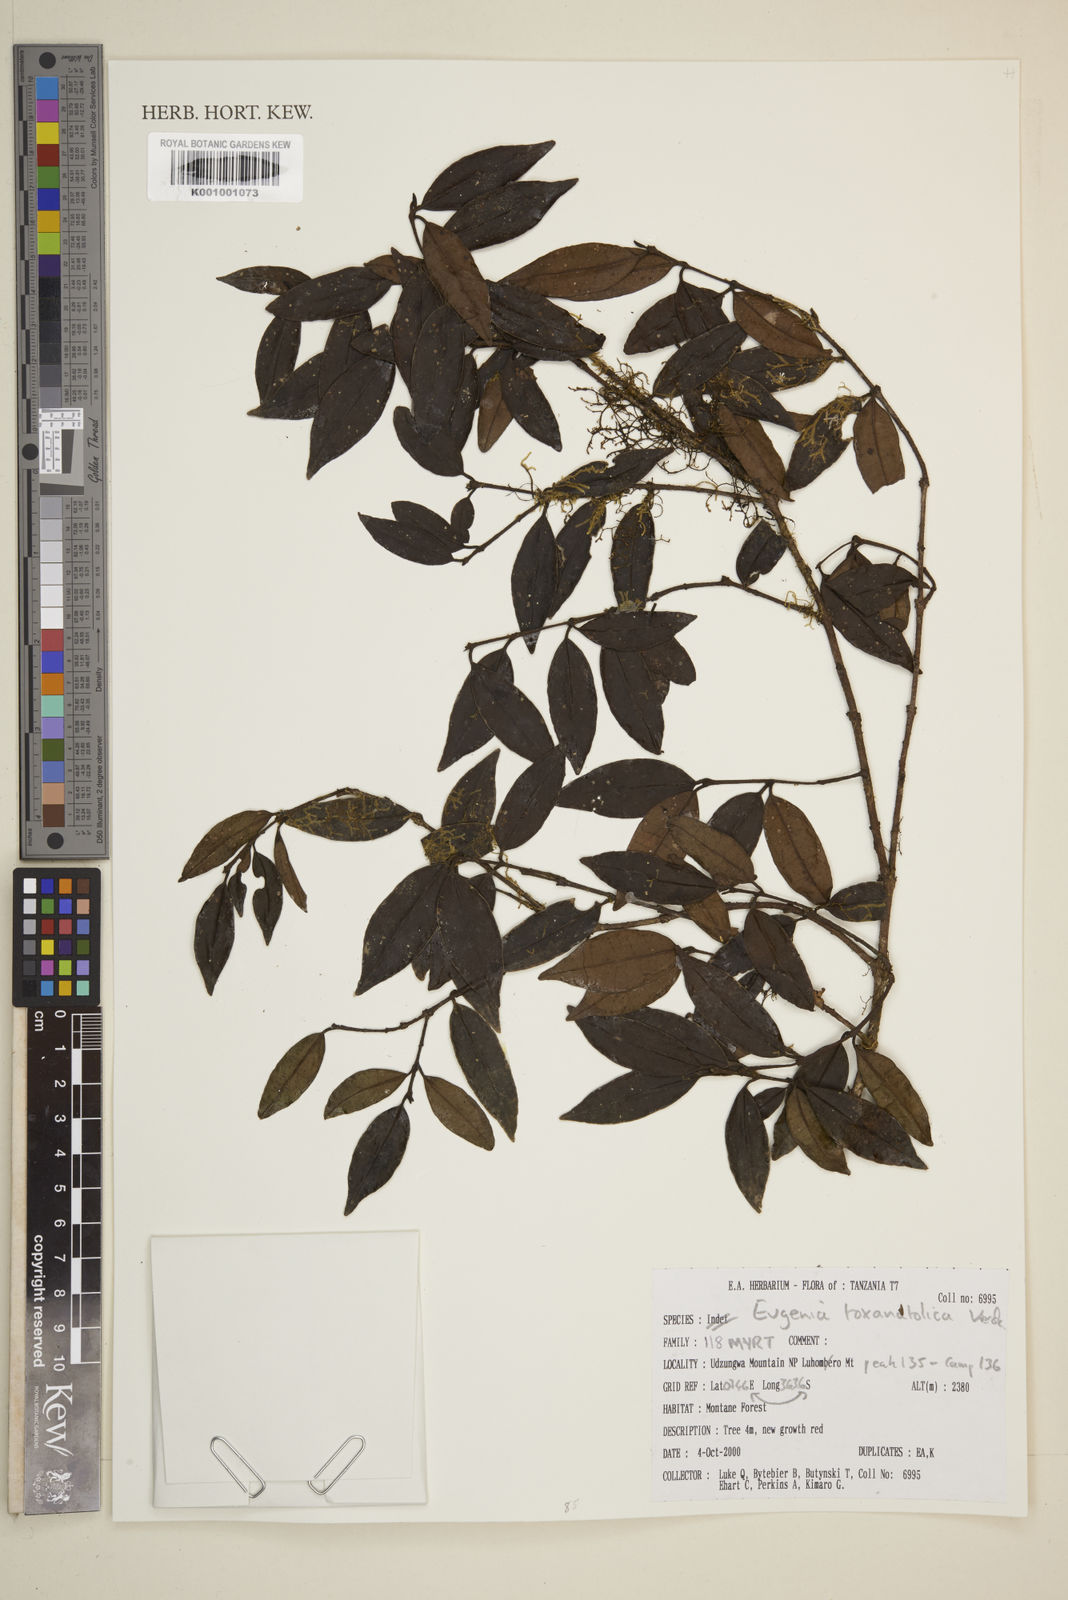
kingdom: Plantae
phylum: Tracheophyta
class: Magnoliopsida
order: Myrtales
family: Myrtaceae
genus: Eugenia
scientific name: Eugenia toxanatolica
